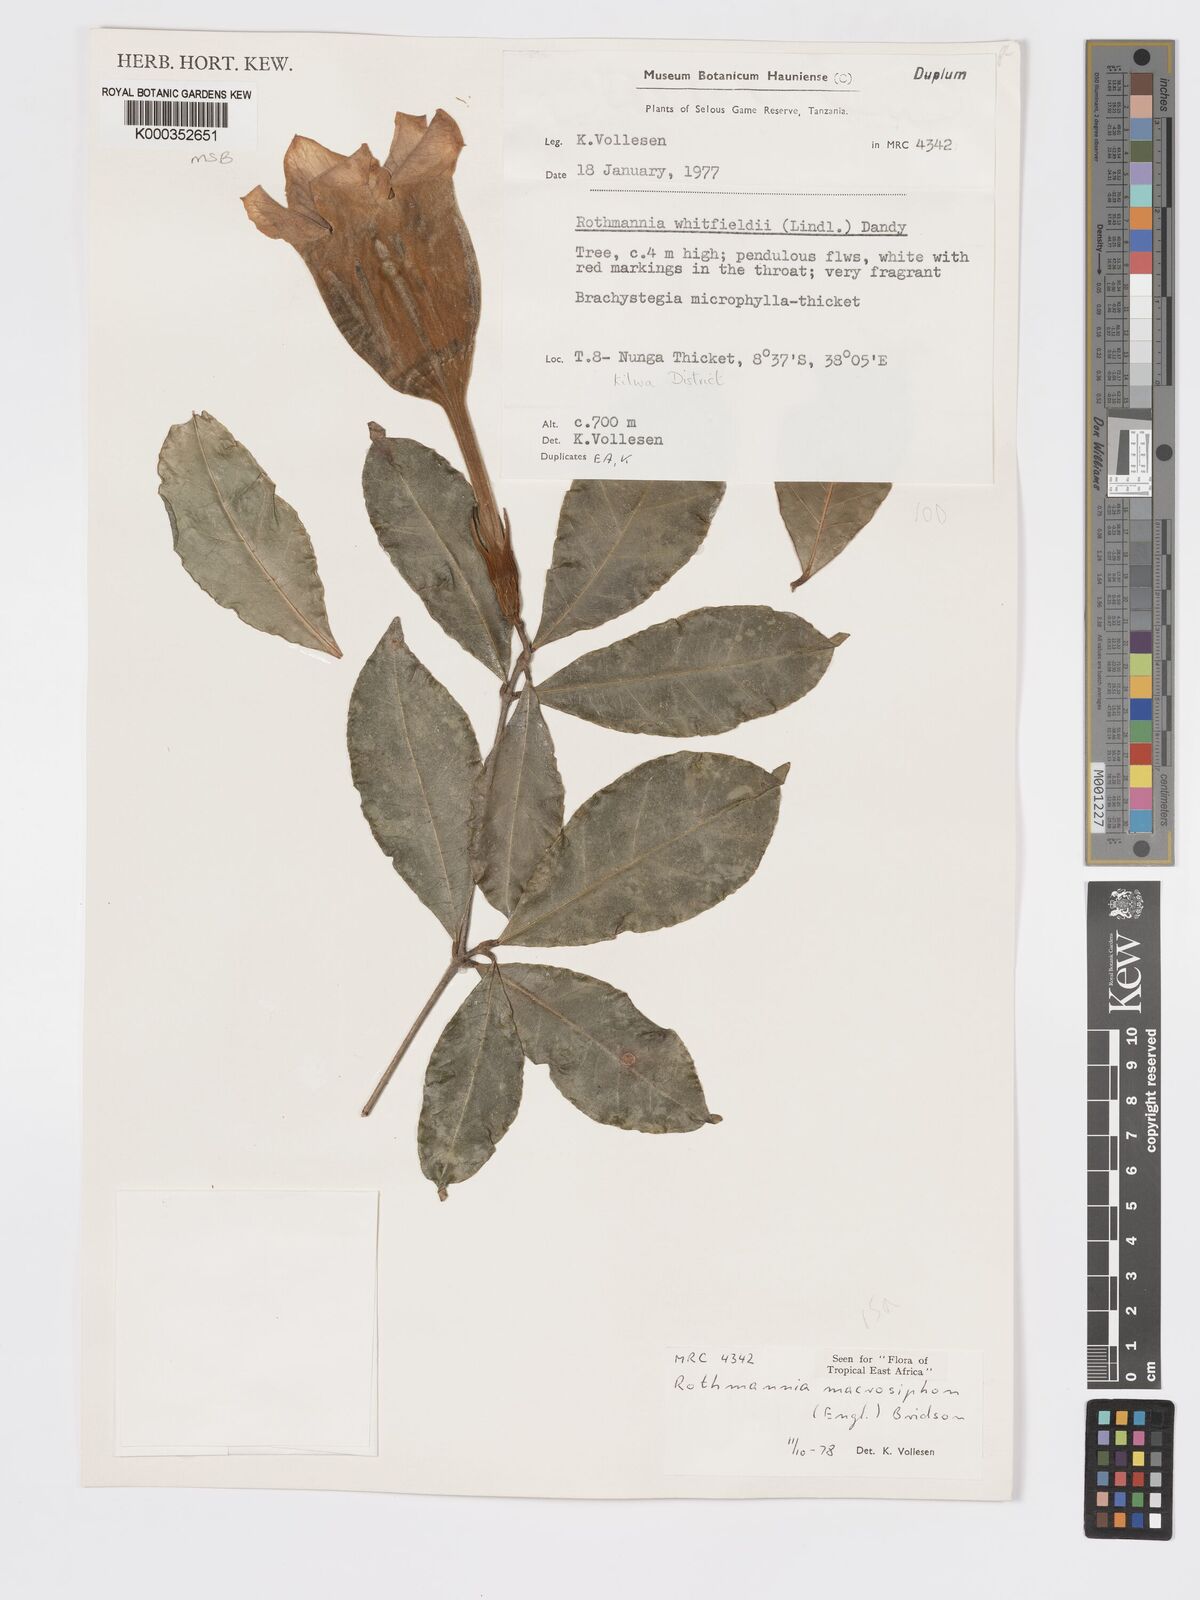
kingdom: Plantae
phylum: Tracheophyta
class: Magnoliopsida
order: Gentianales
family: Rubiaceae
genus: Rothmannia
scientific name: Rothmannia macrosiphon
